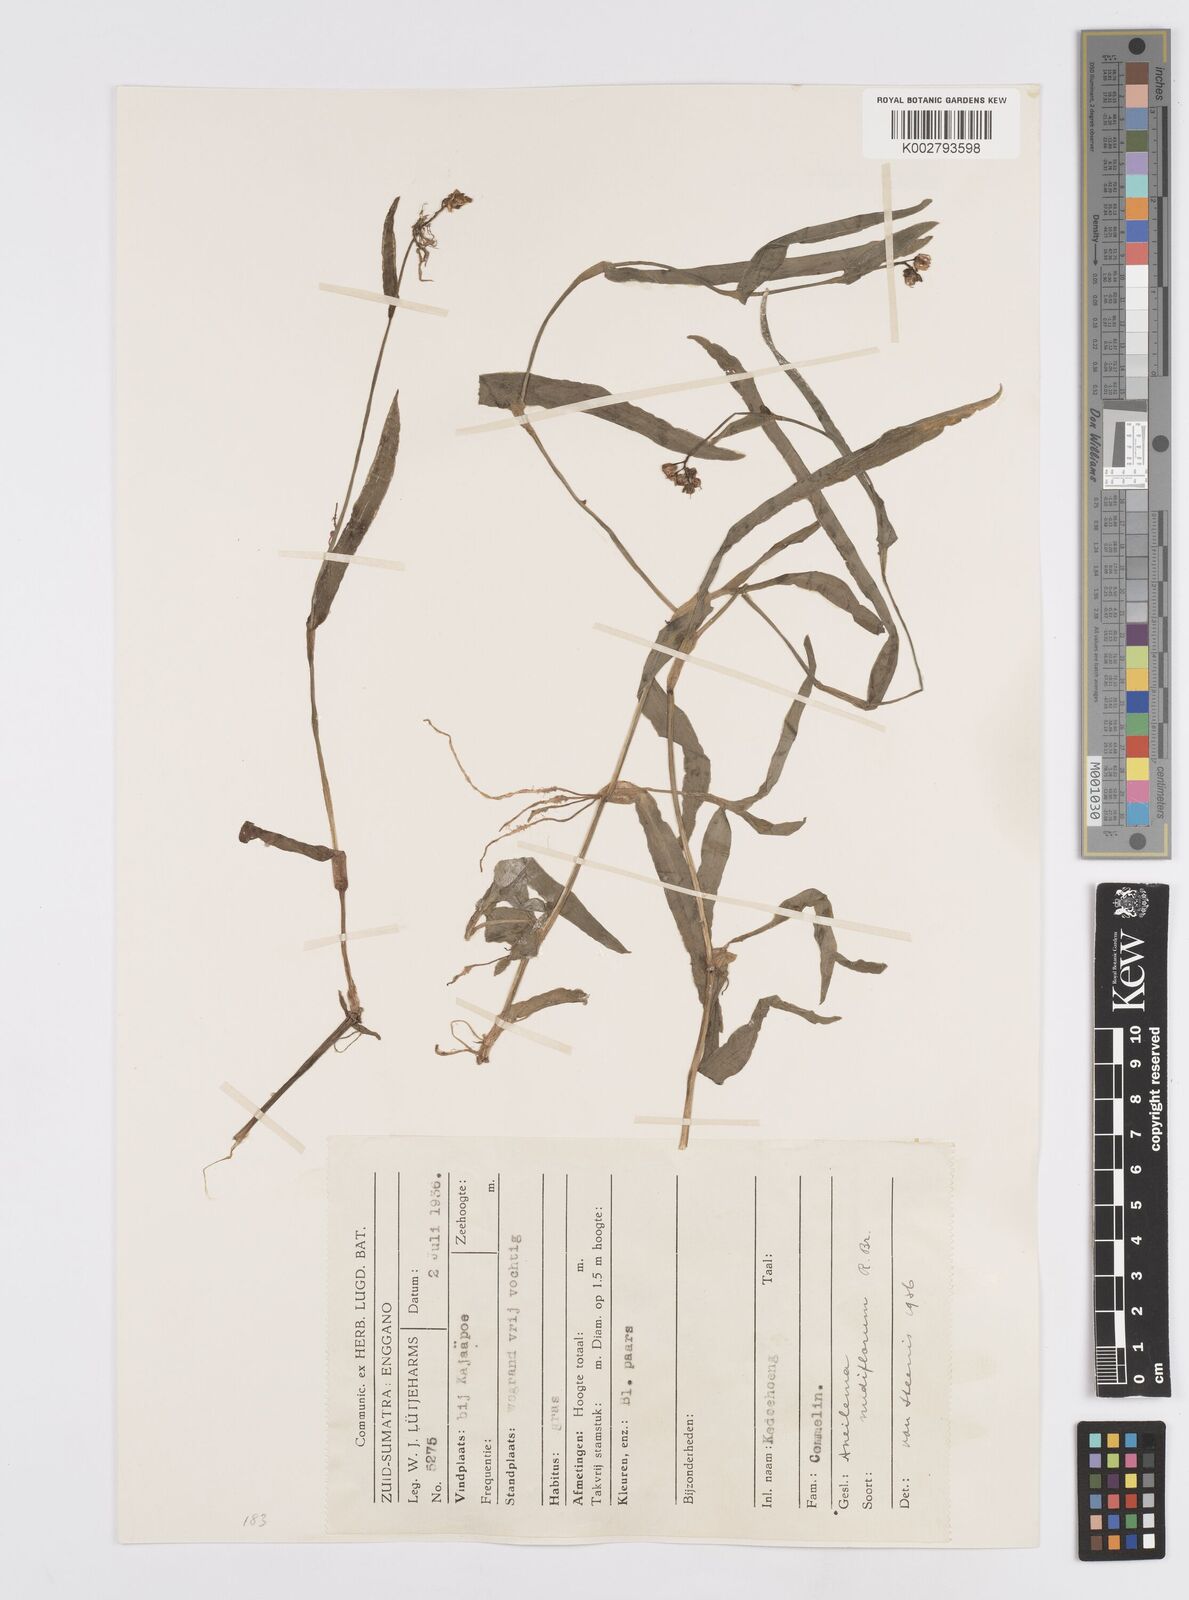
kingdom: Plantae
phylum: Tracheophyta
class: Liliopsida
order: Commelinales
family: Commelinaceae
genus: Murdannia
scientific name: Murdannia nudiflora
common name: Nakedstem dewflower
